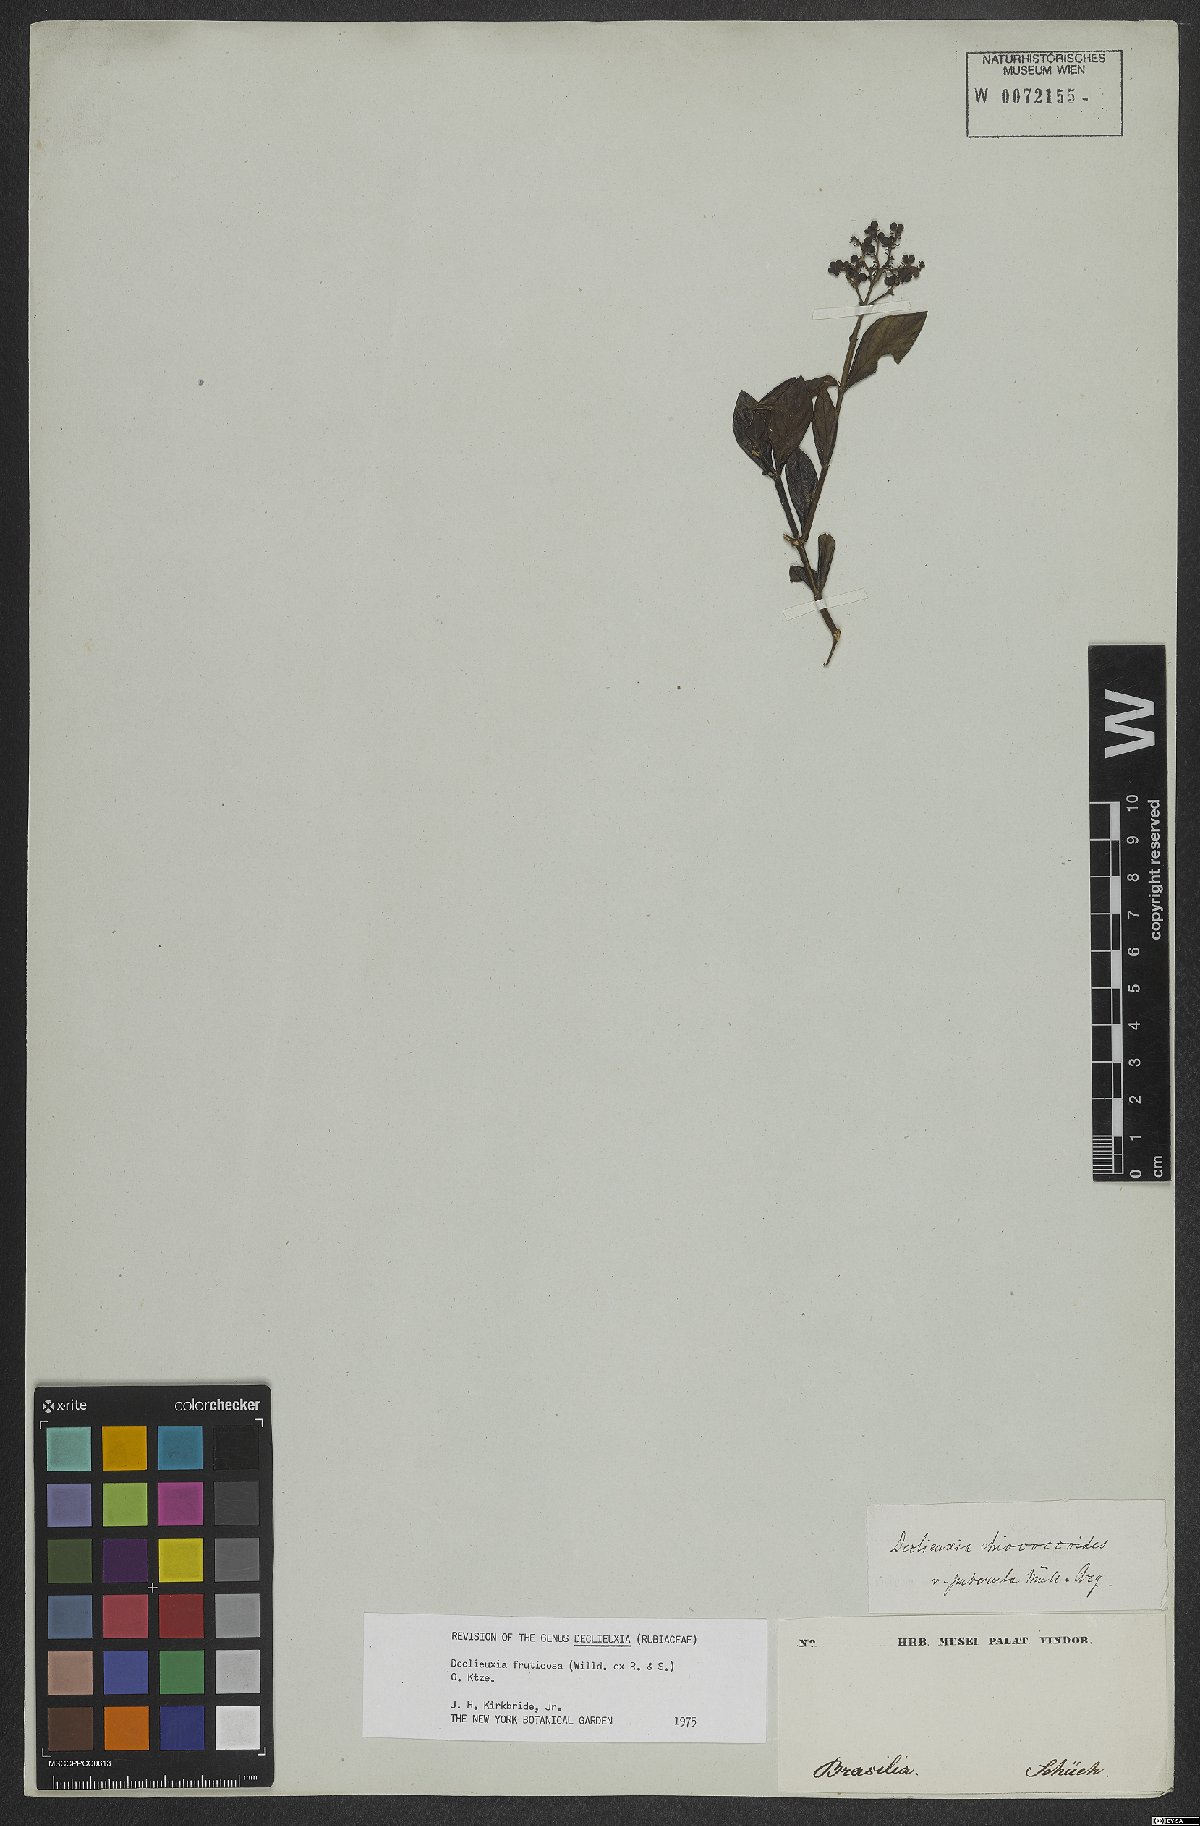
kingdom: Plantae
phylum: Tracheophyta
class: Magnoliopsida
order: Gentianales
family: Rubiaceae
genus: Declieuxia
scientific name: Declieuxia fruticosa
